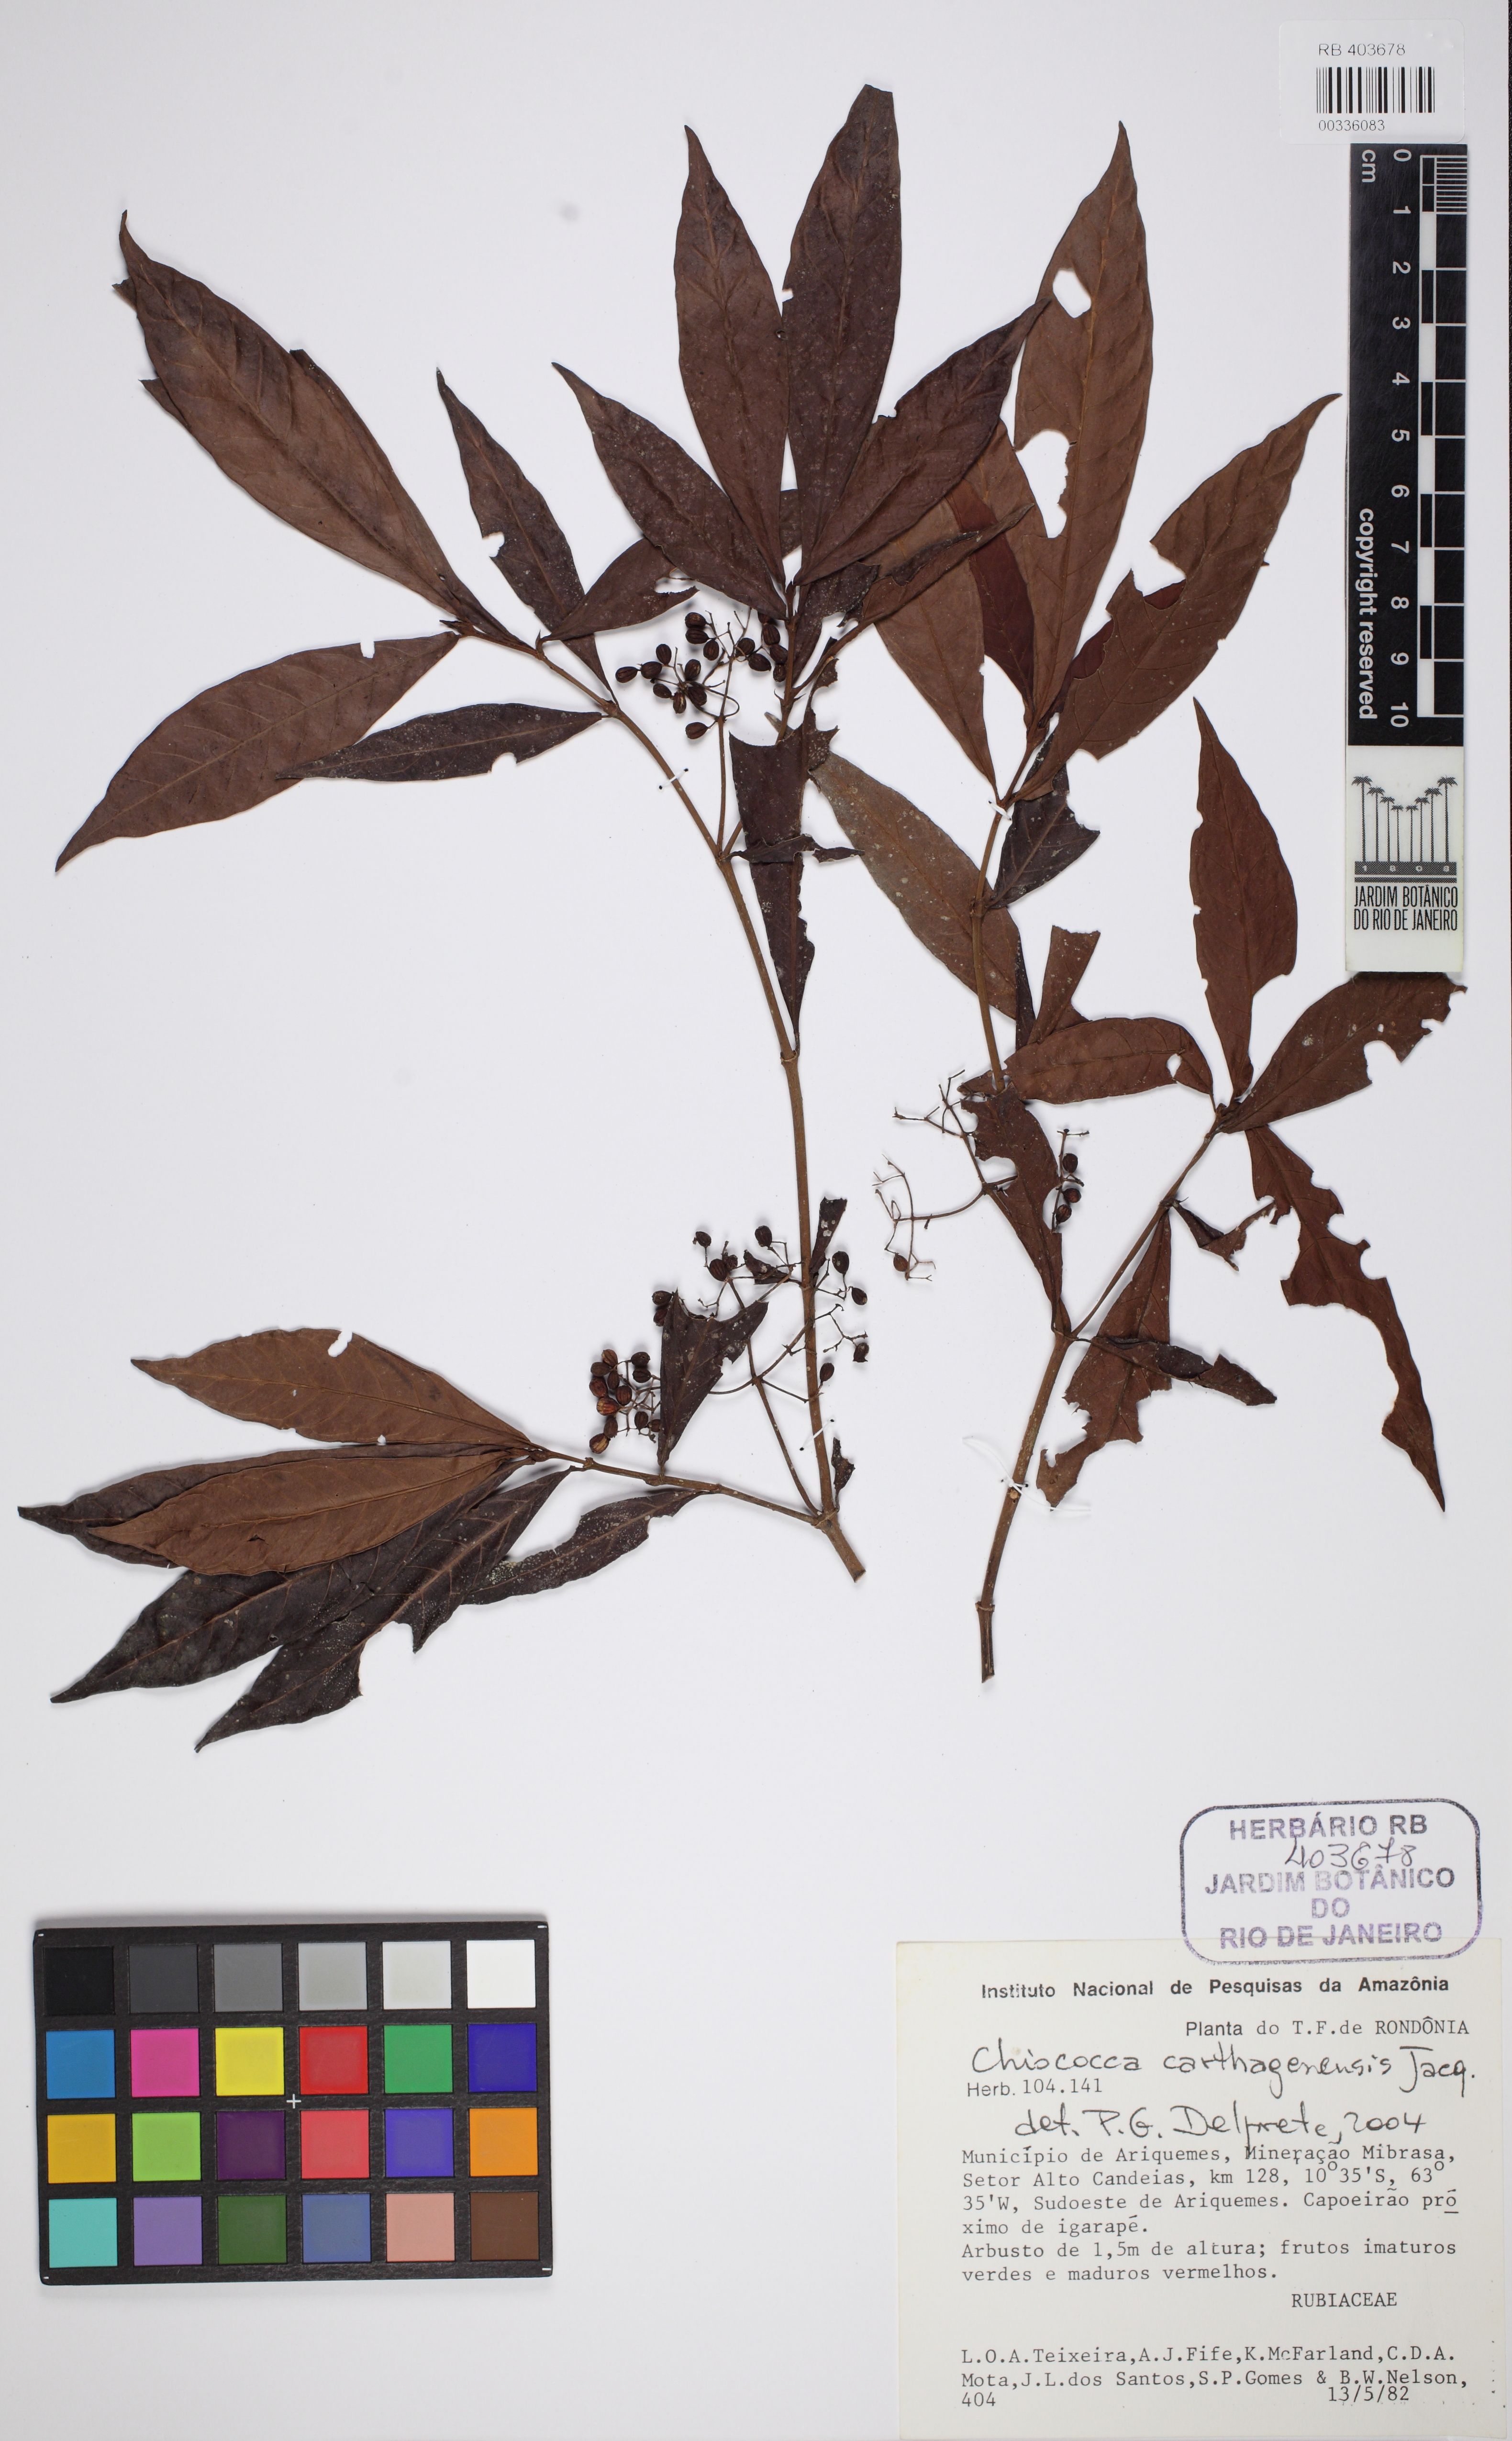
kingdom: Plantae
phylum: Tracheophyta
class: Magnoliopsida
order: Gentianales
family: Rubiaceae
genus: Psychotria
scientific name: Psychotria borjensis
